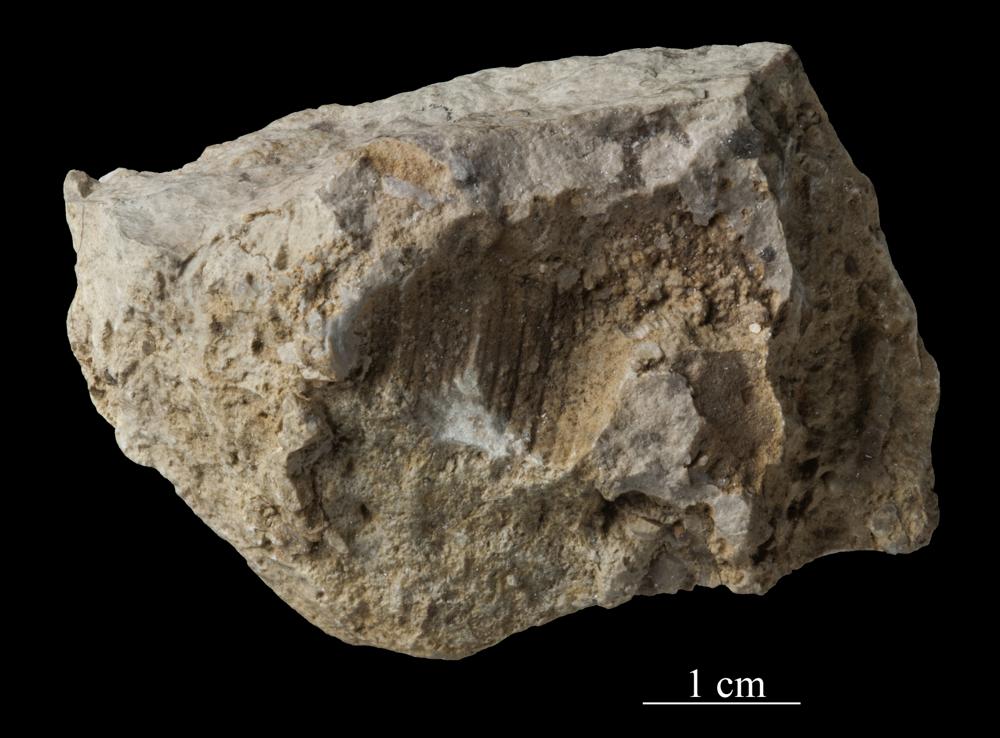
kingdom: Animalia
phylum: Mollusca
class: Gastropoda
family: Platyceratidae
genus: Cyclonema
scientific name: Cyclonema Turbo rupestre
